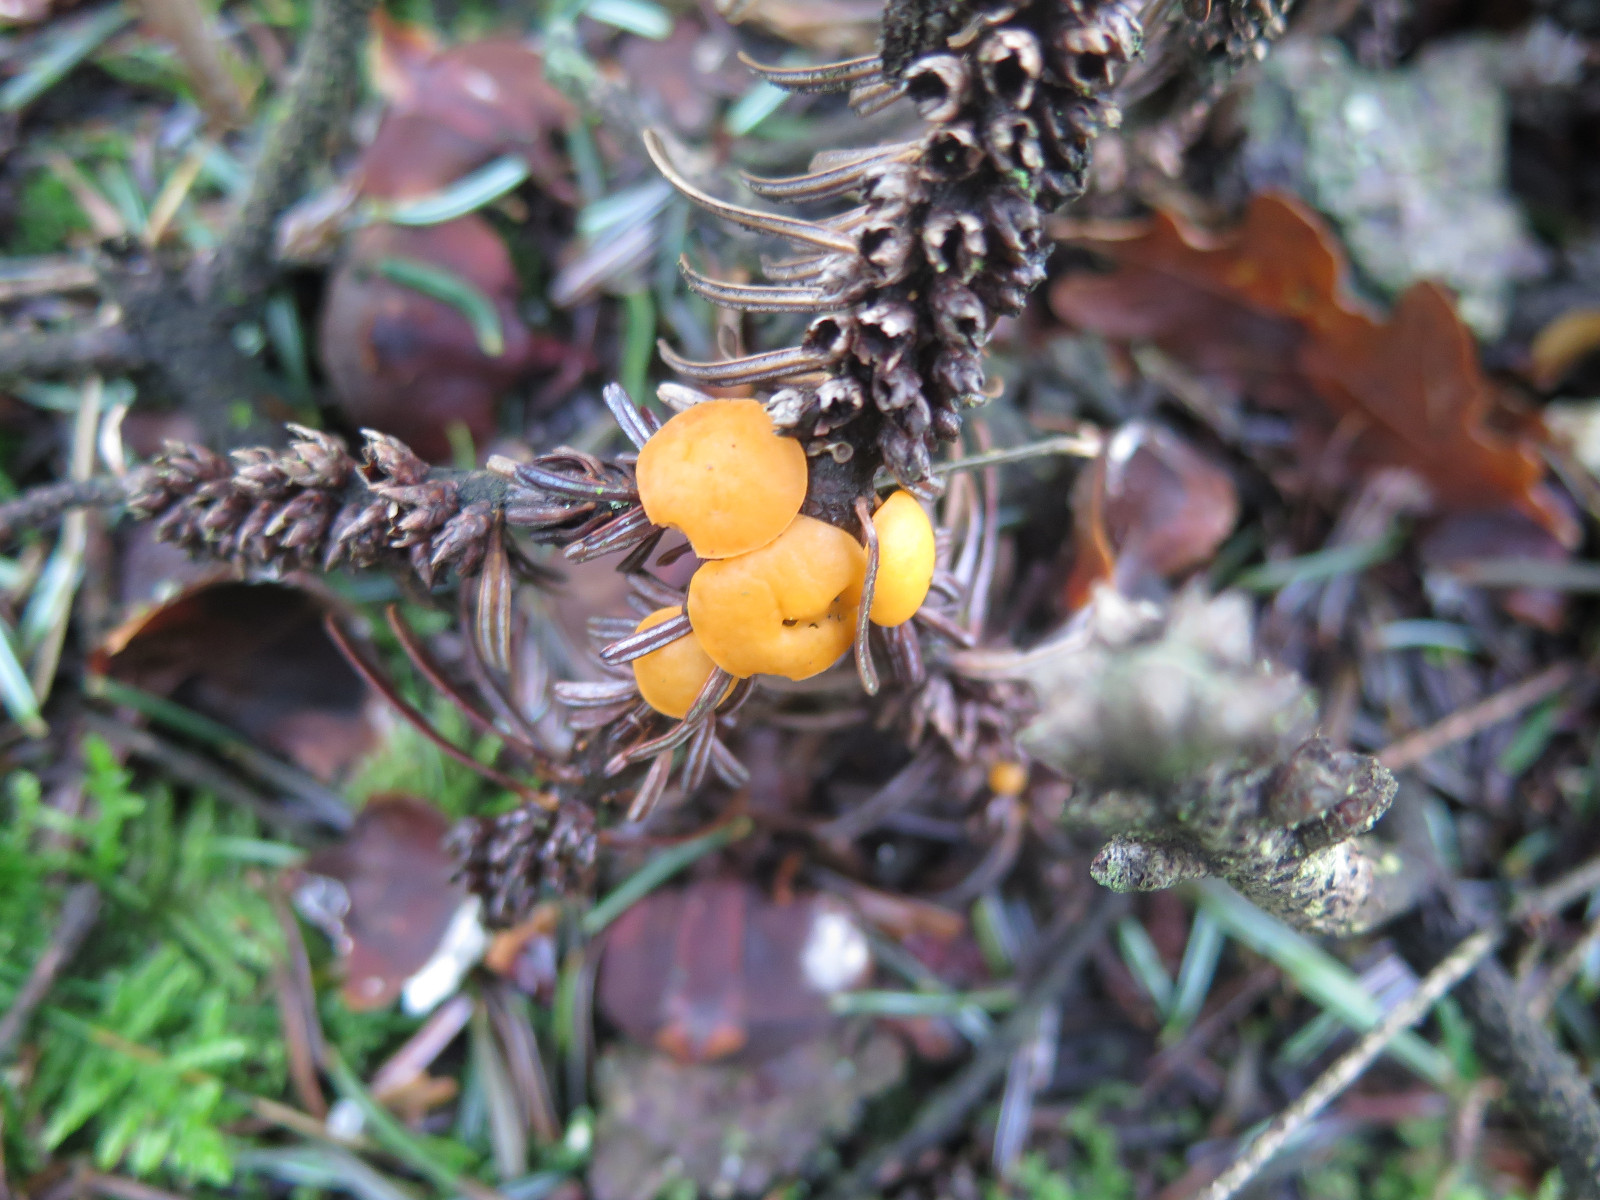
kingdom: Fungi
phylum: Ascomycota
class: Pezizomycetes
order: Pezizales
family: Sarcoscyphaceae
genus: Pithya
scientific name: Pithya vulgaris
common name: stor dukatbæger
